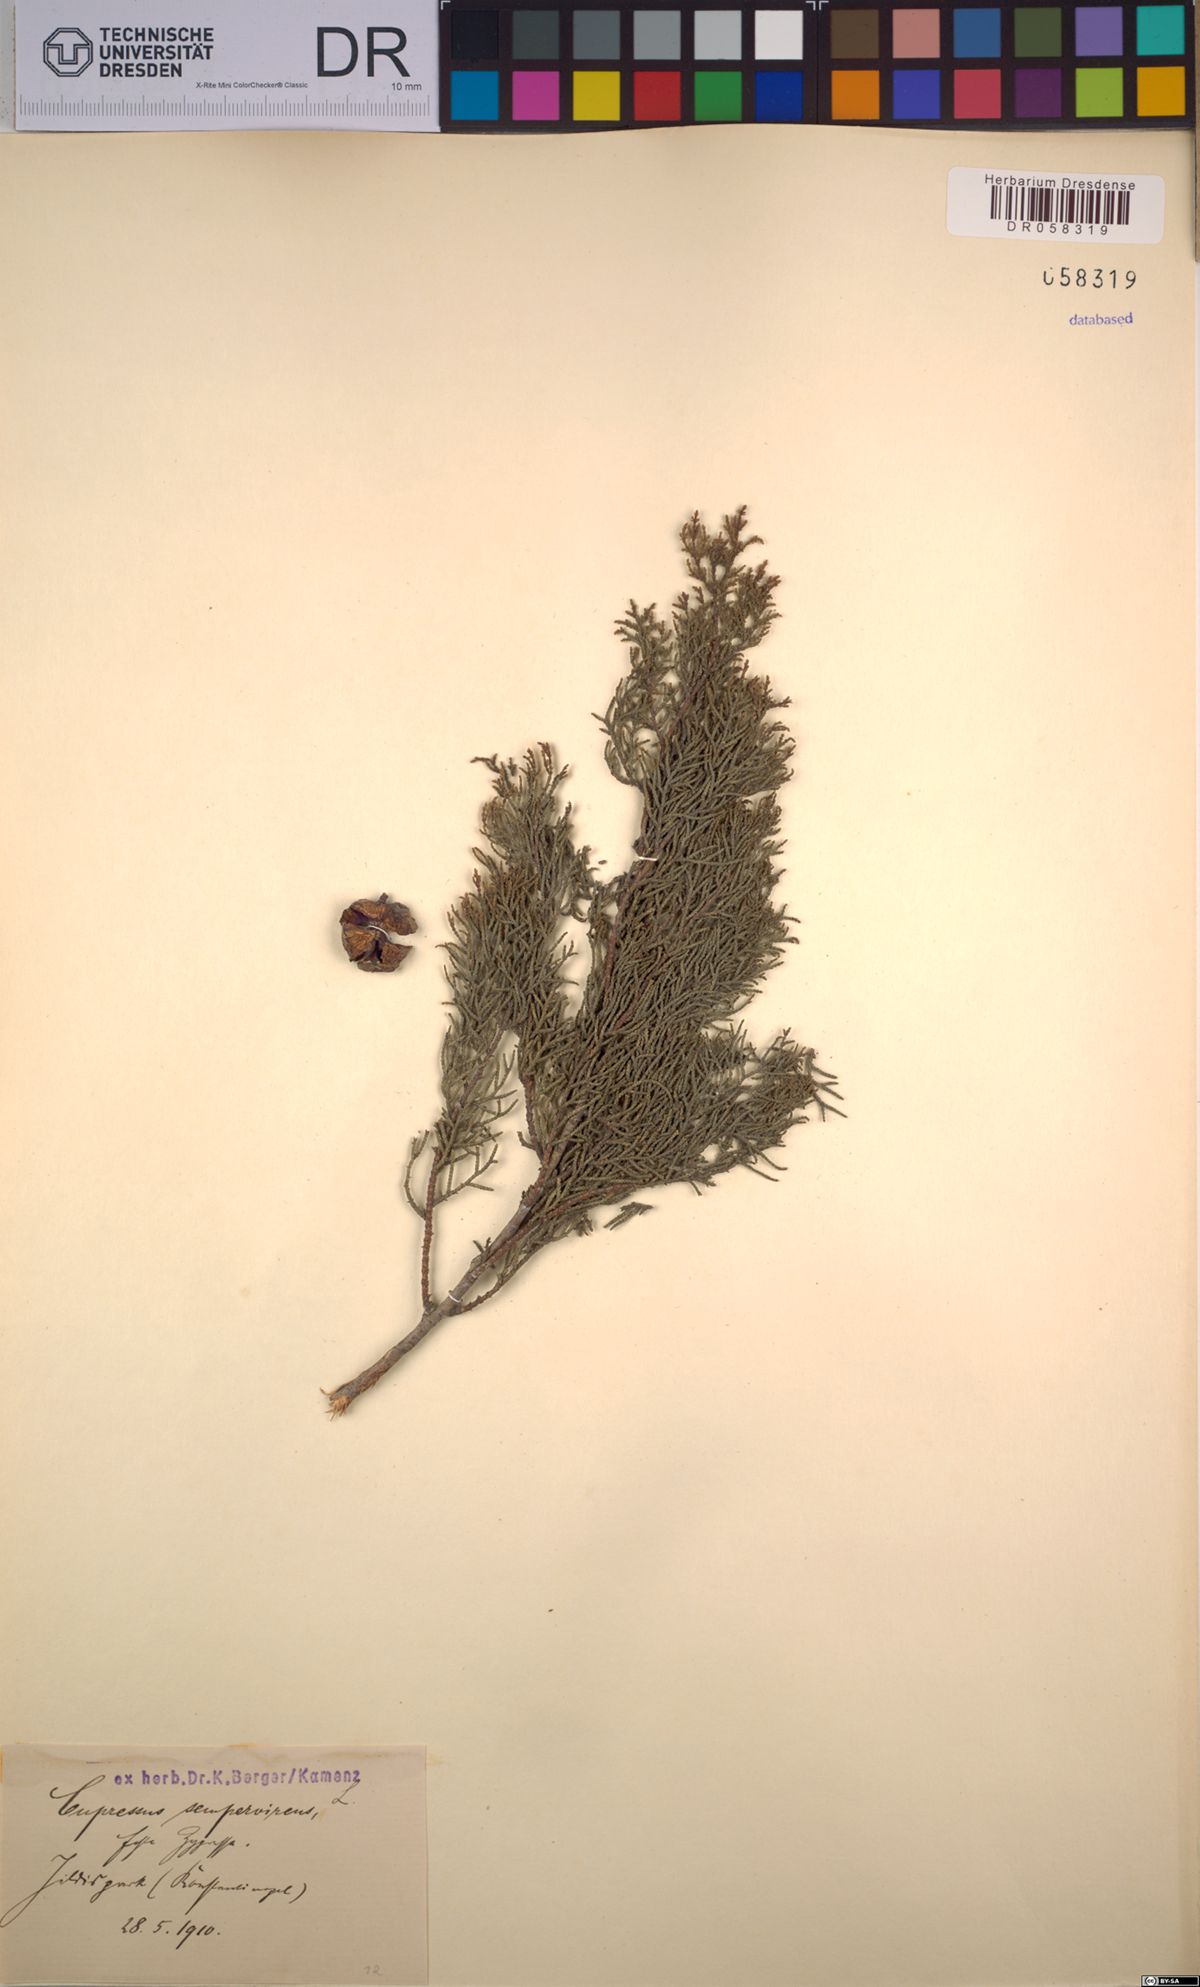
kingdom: Plantae
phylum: Tracheophyta
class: Pinopsida
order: Pinales
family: Cupressaceae
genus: Cupressus
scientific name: Cupressus sempervirens
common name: Italian cypress
